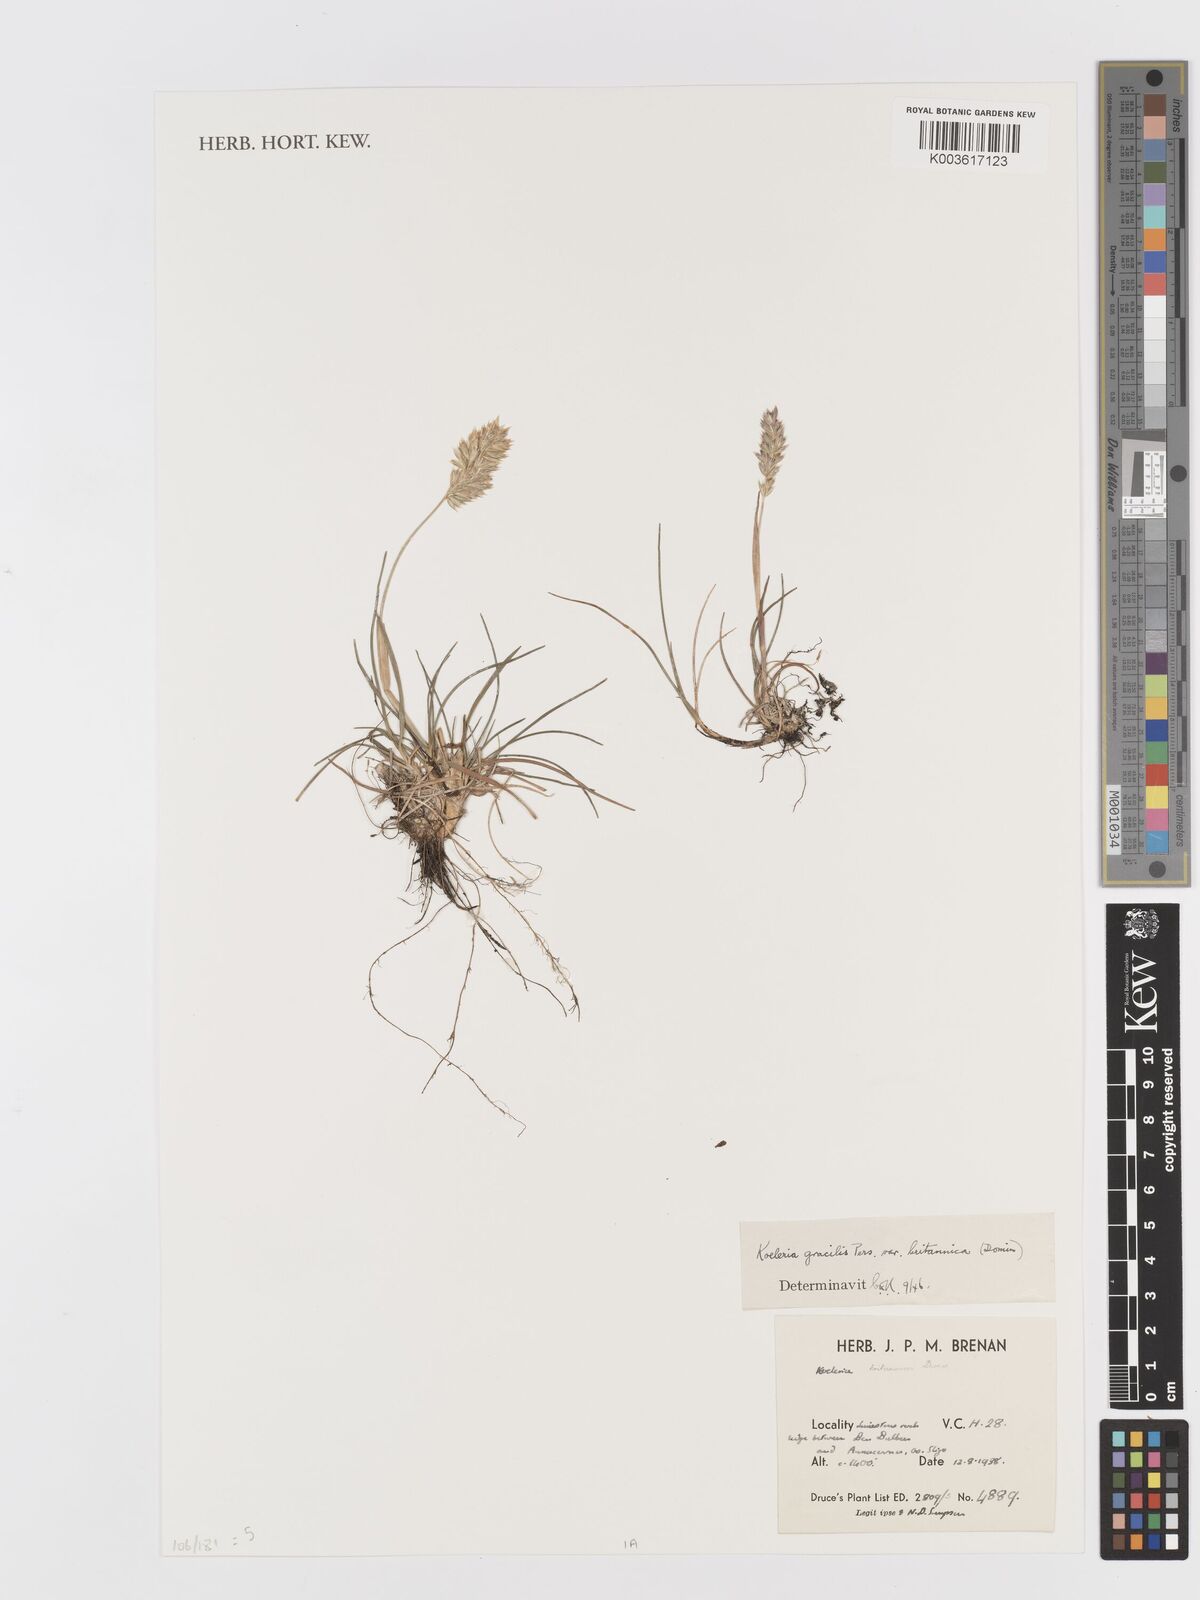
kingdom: Plantae
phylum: Tracheophyta
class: Liliopsida
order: Poales
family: Poaceae
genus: Koeleria
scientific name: Koeleria macrantha
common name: Crested hair-grass
